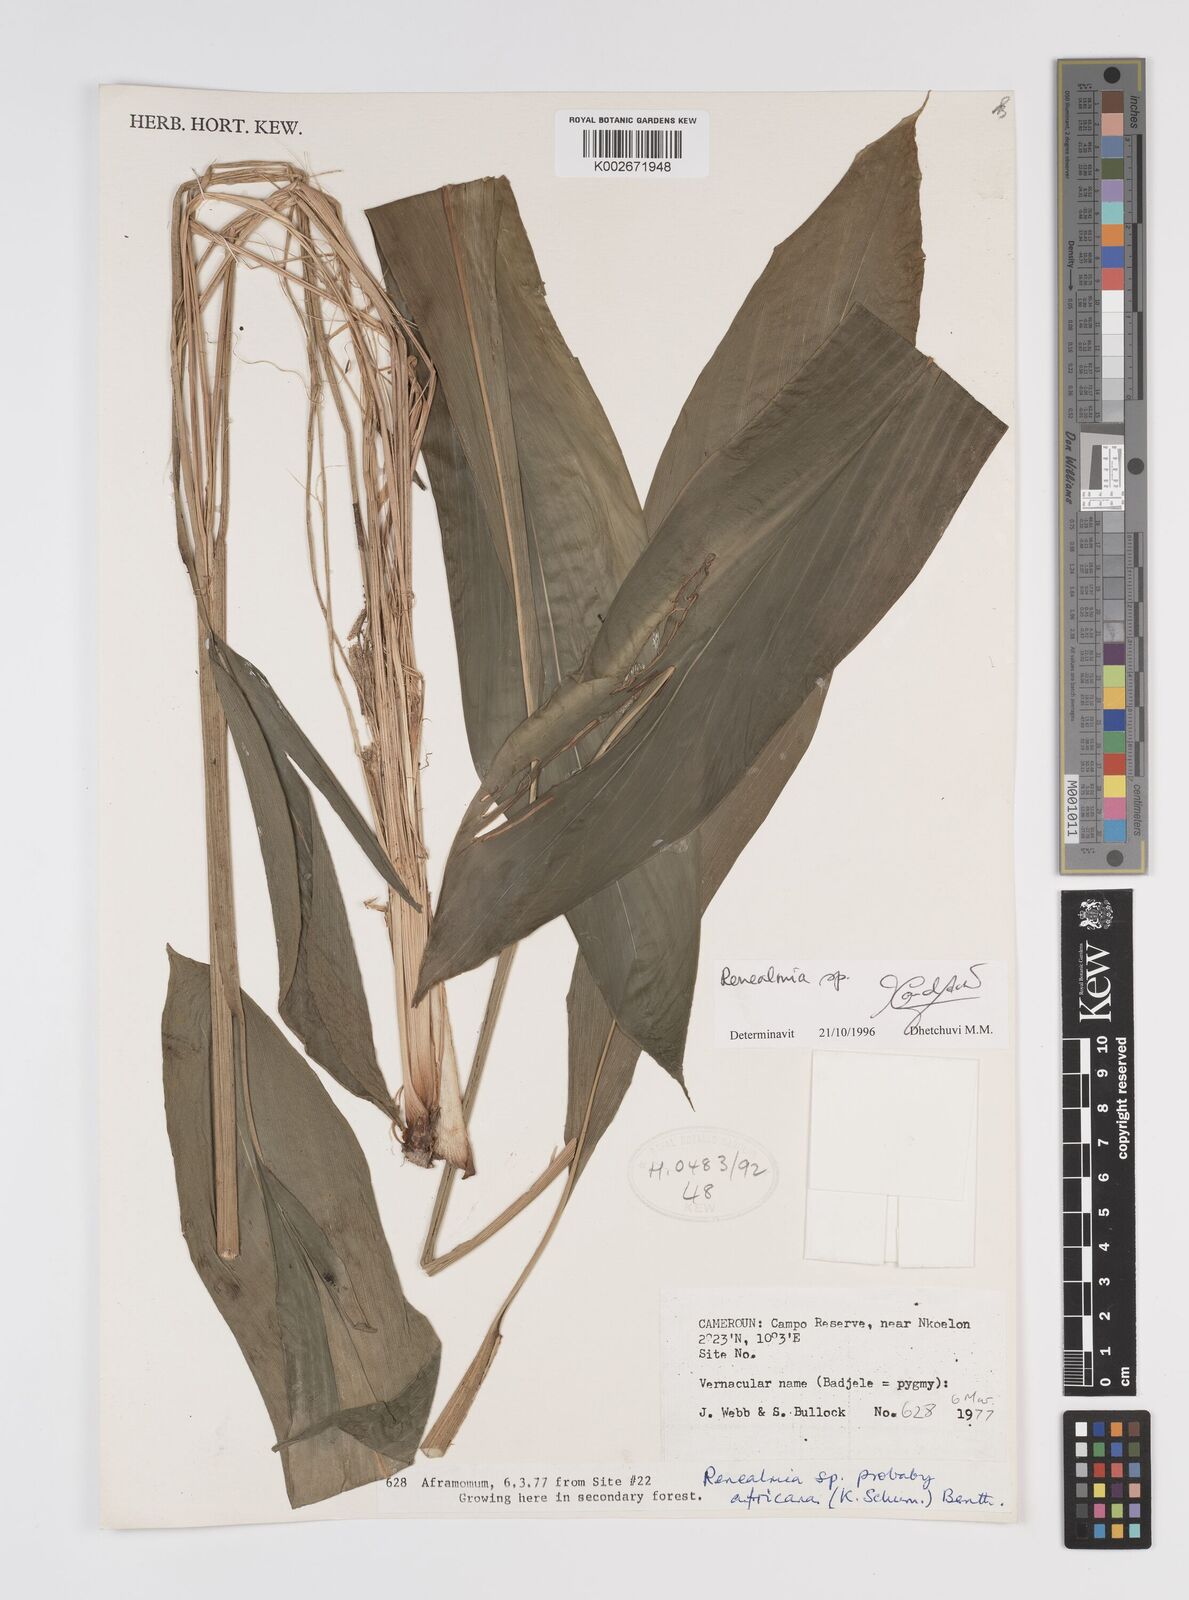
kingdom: Plantae
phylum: Tracheophyta
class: Liliopsida
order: Zingiberales
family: Zingiberaceae
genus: Renealmia
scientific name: Renealmia
